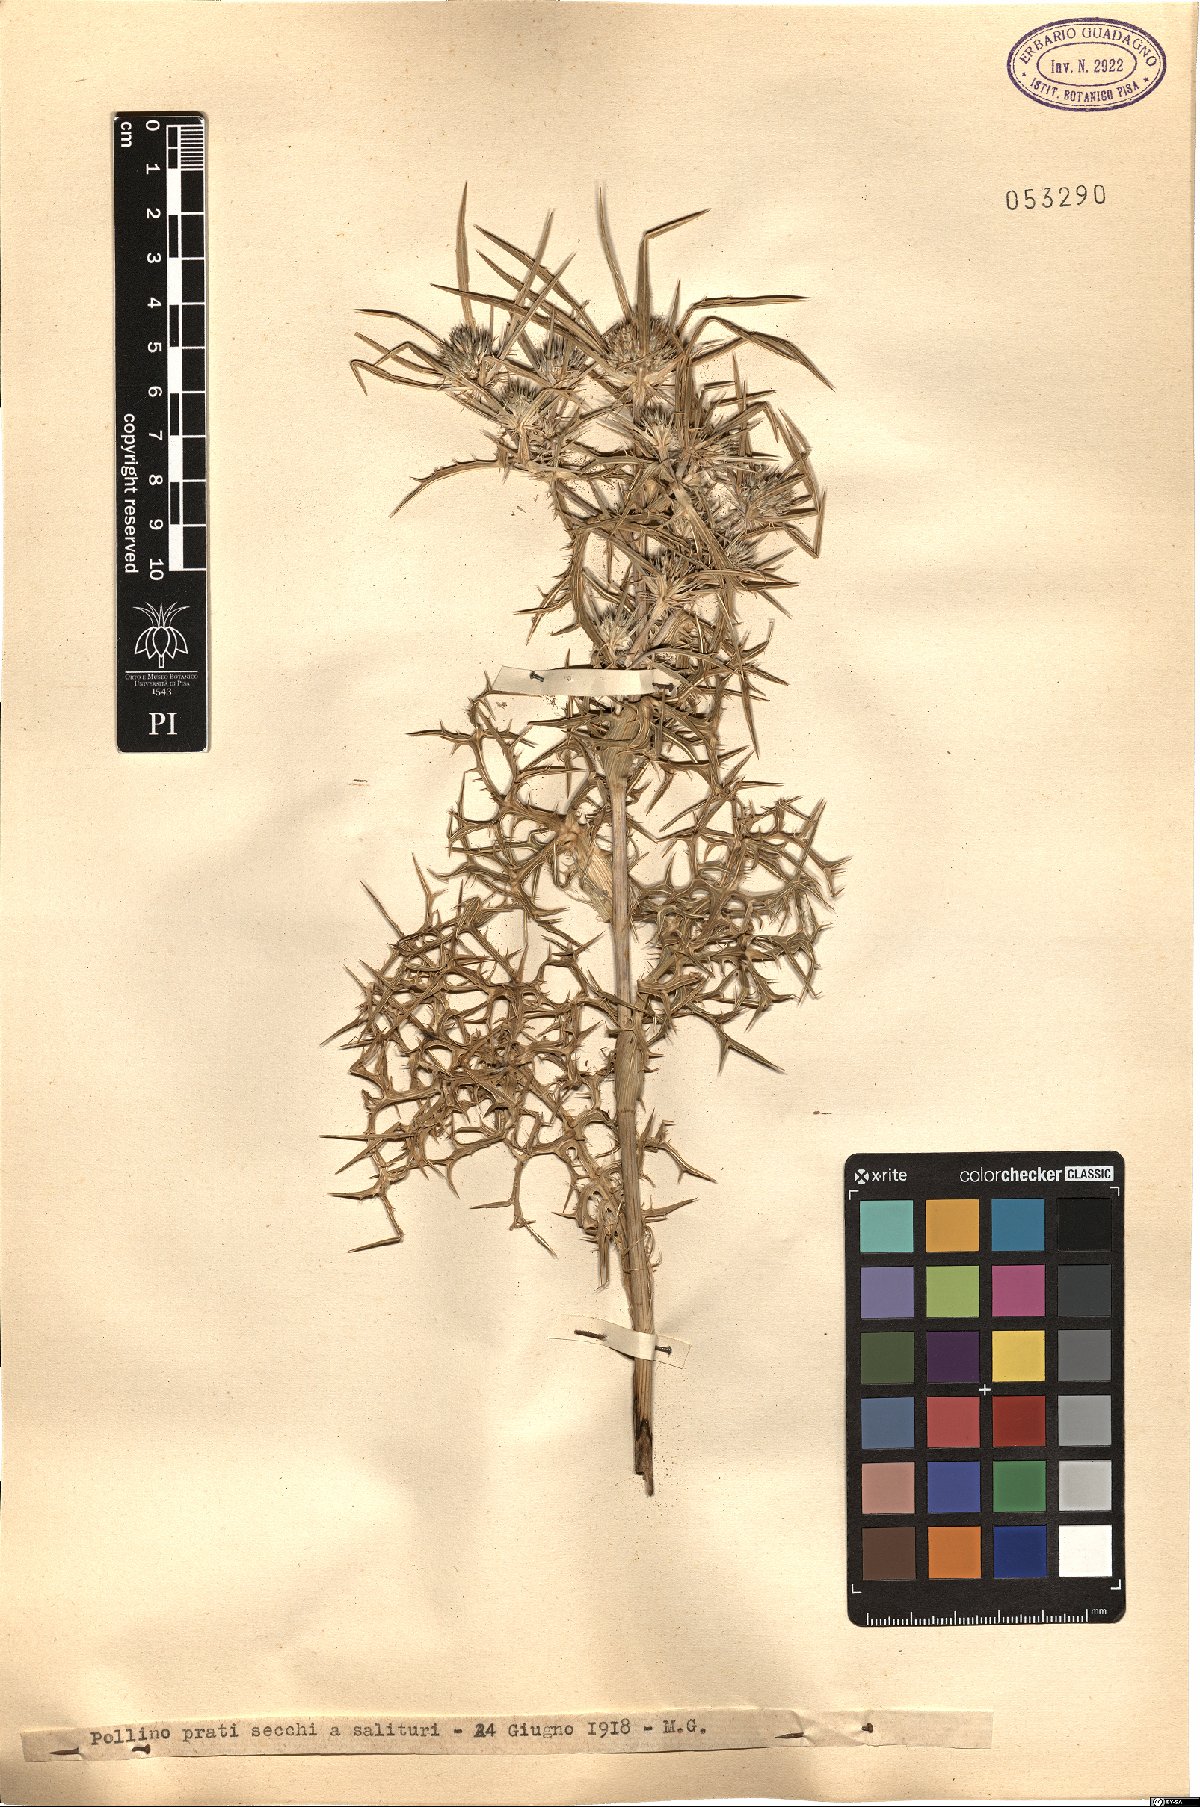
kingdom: Plantae
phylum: Tracheophyta
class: Magnoliopsida
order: Apiales
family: Apiaceae
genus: Eryngium
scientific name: Eryngium
